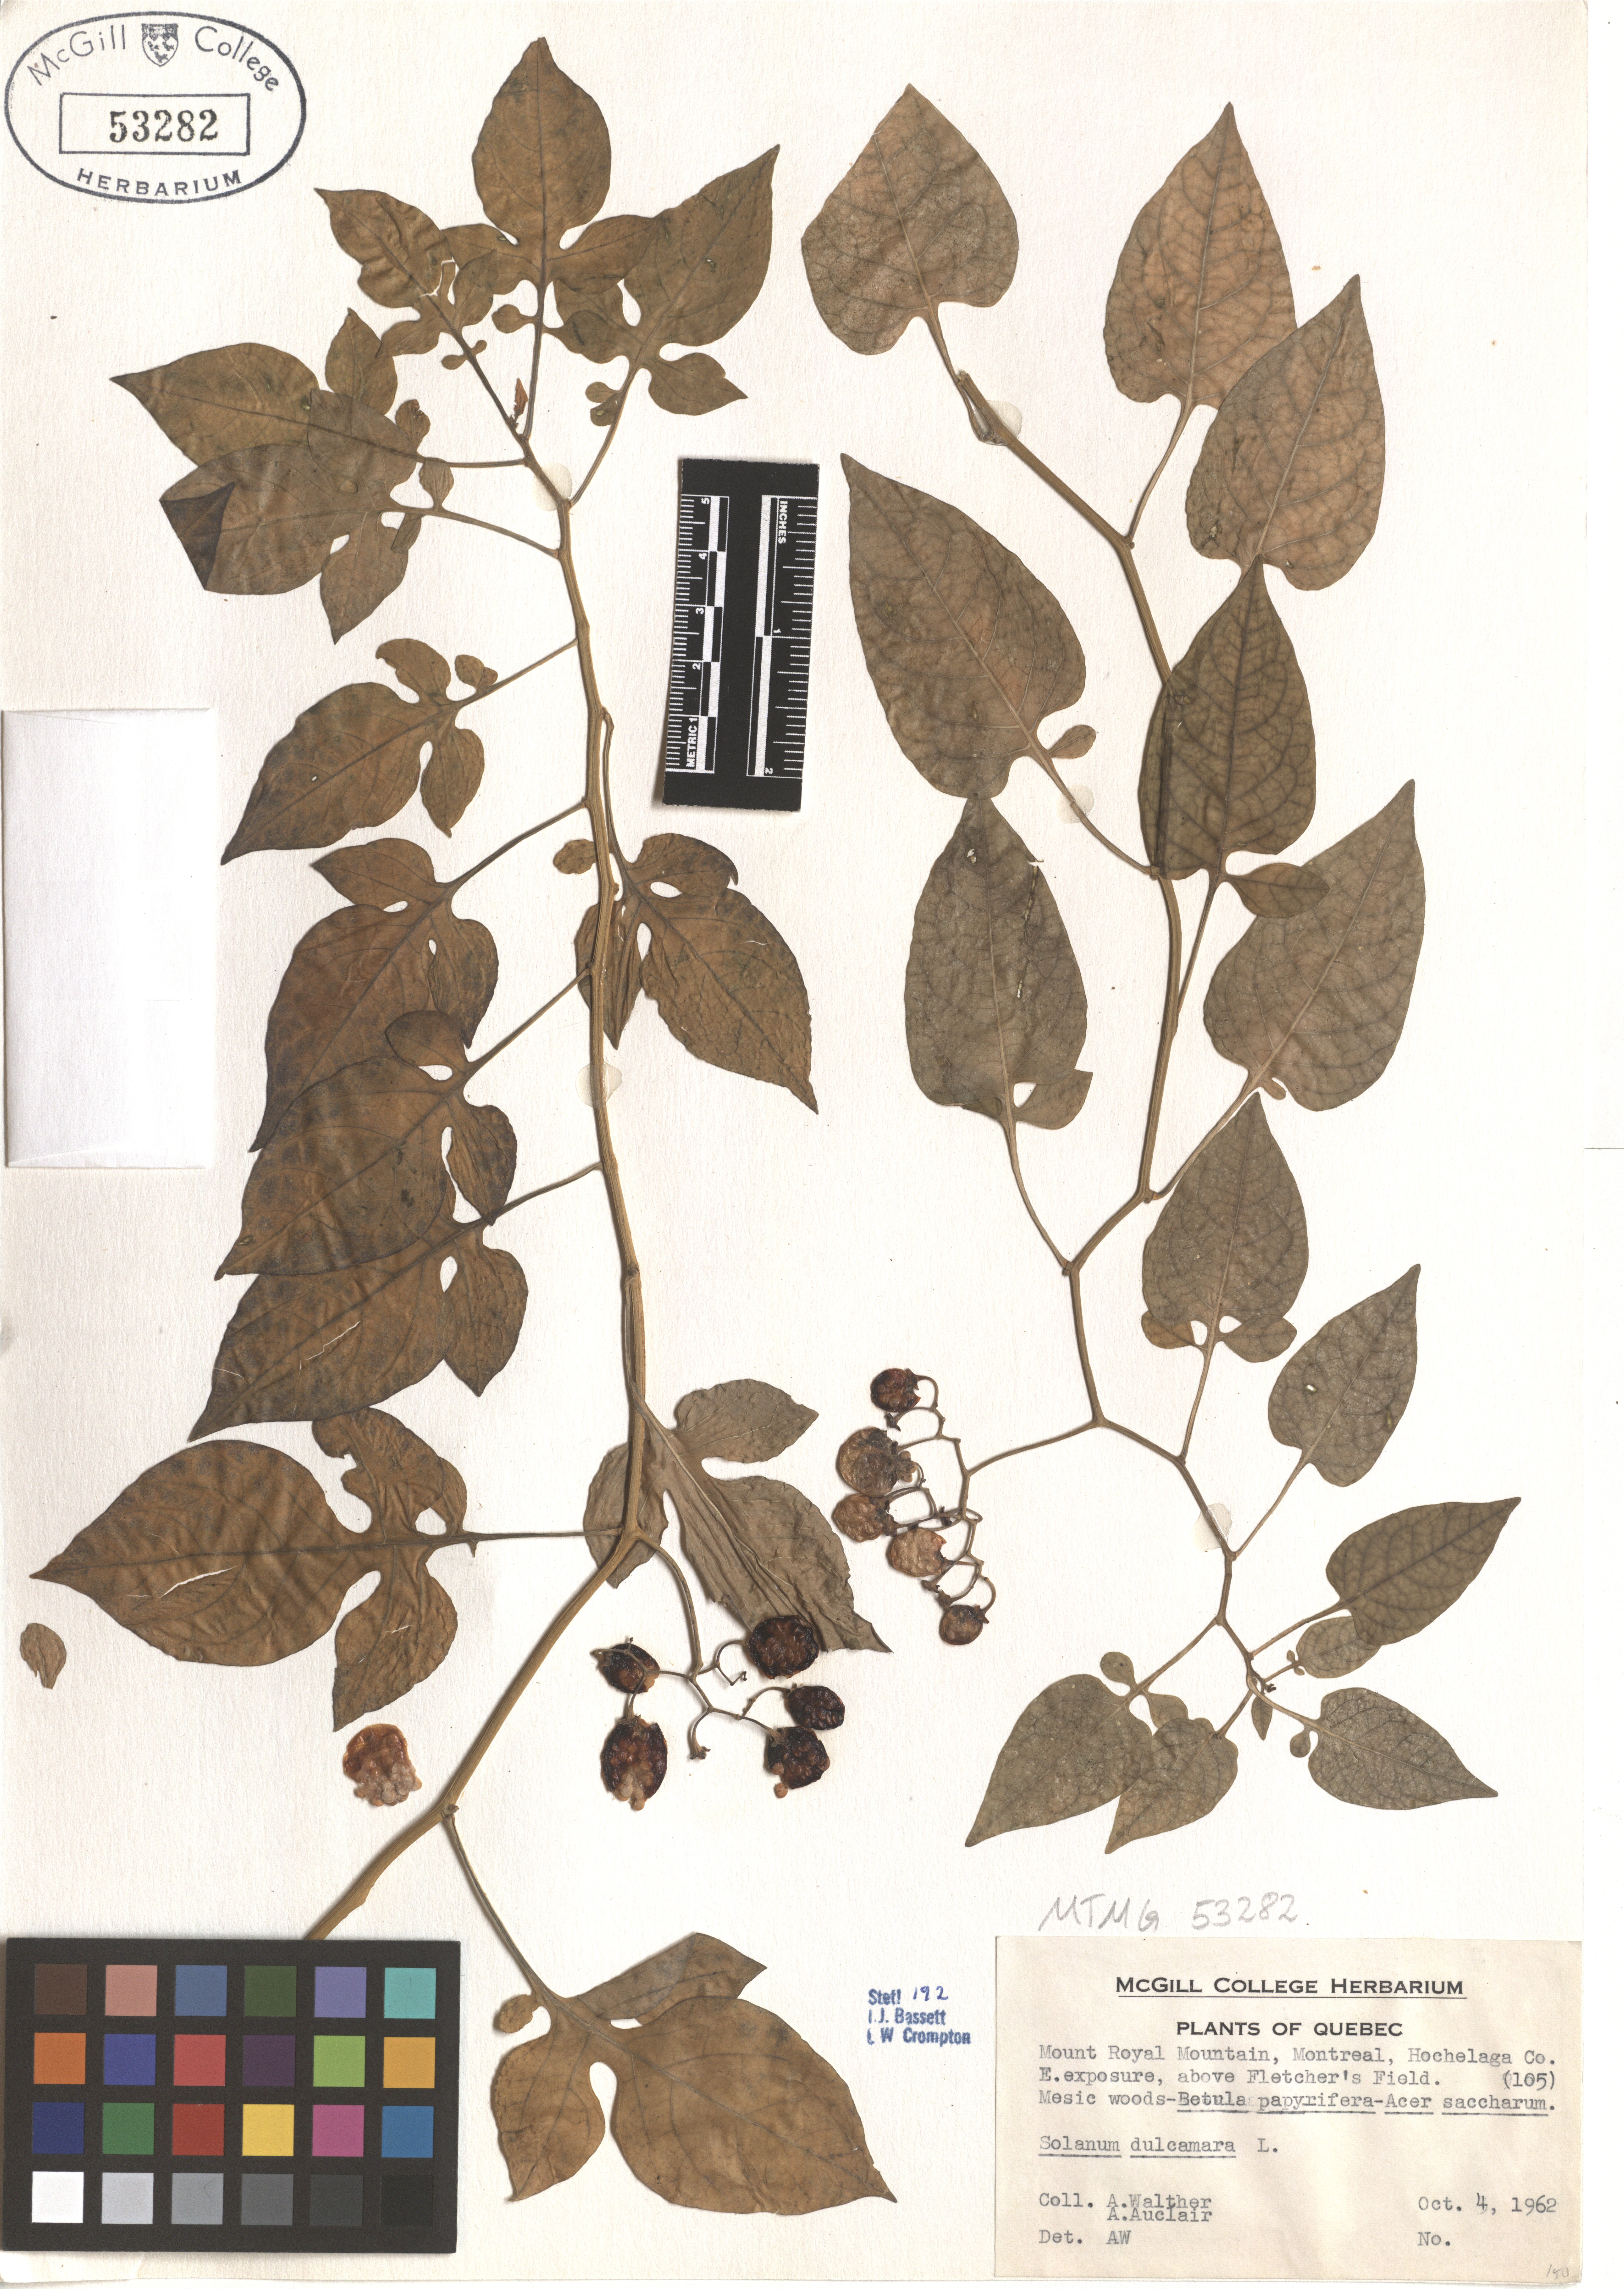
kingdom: Plantae
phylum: Tracheophyta
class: Magnoliopsida
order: Solanales
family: Solanaceae
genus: Solanum
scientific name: Solanum dulcamara
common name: Climbing nightshade
